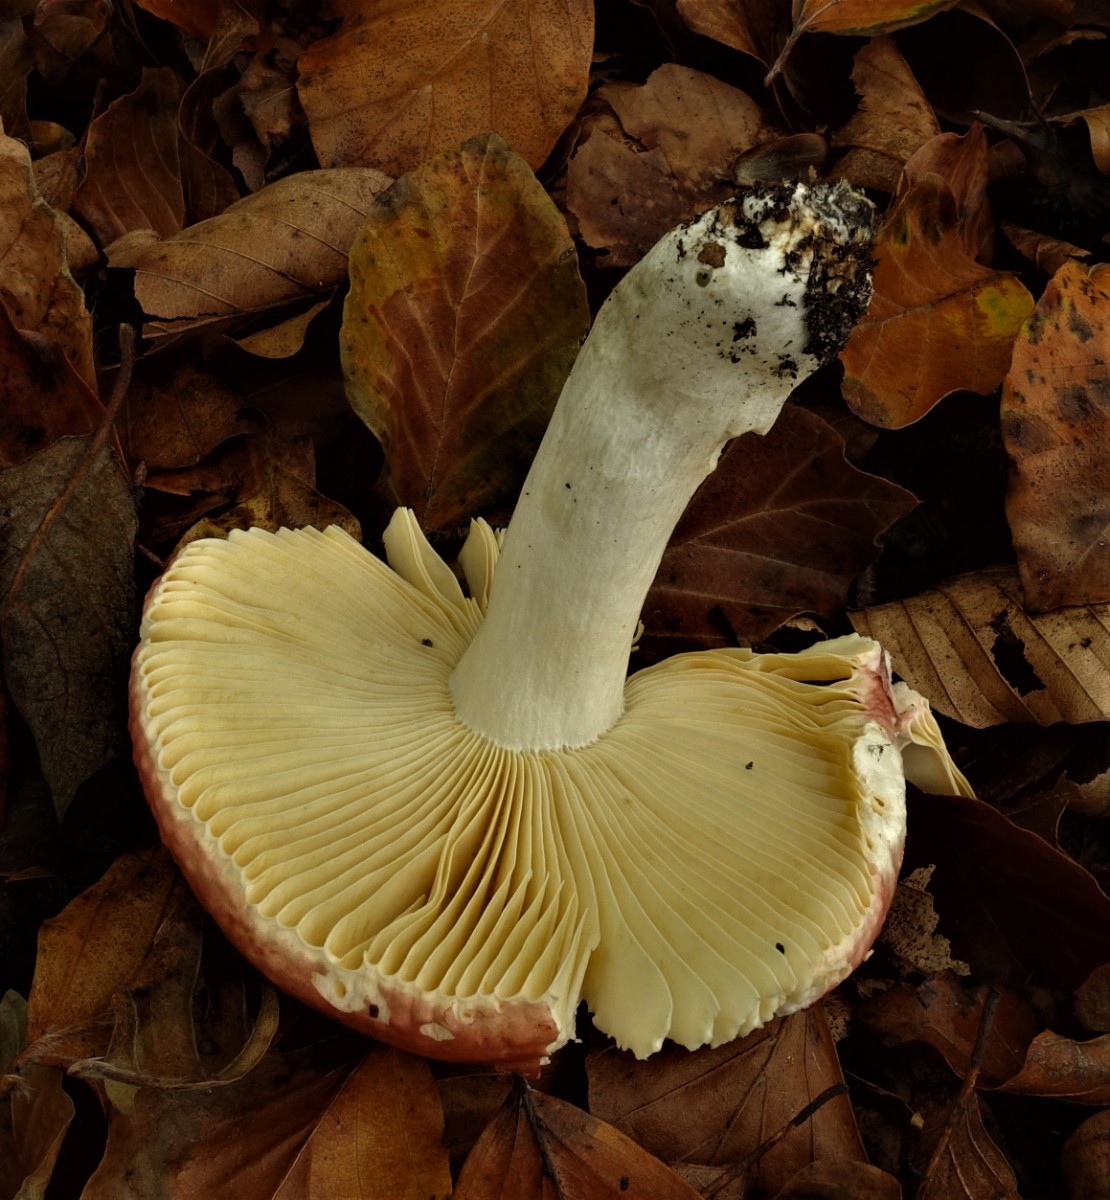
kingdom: Fungi
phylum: Basidiomycota
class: Agaricomycetes
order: Russulales
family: Russulaceae
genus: Russula
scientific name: Russula decipiens
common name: grånende skørhat
